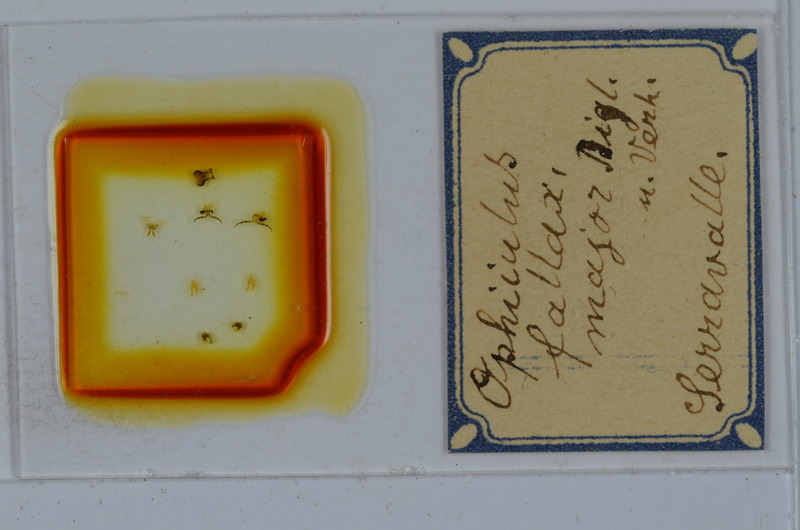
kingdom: Animalia
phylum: Arthropoda
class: Diplopoda
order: Julida
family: Julidae
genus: Ophyiulus
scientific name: Ophyiulus pilosus
